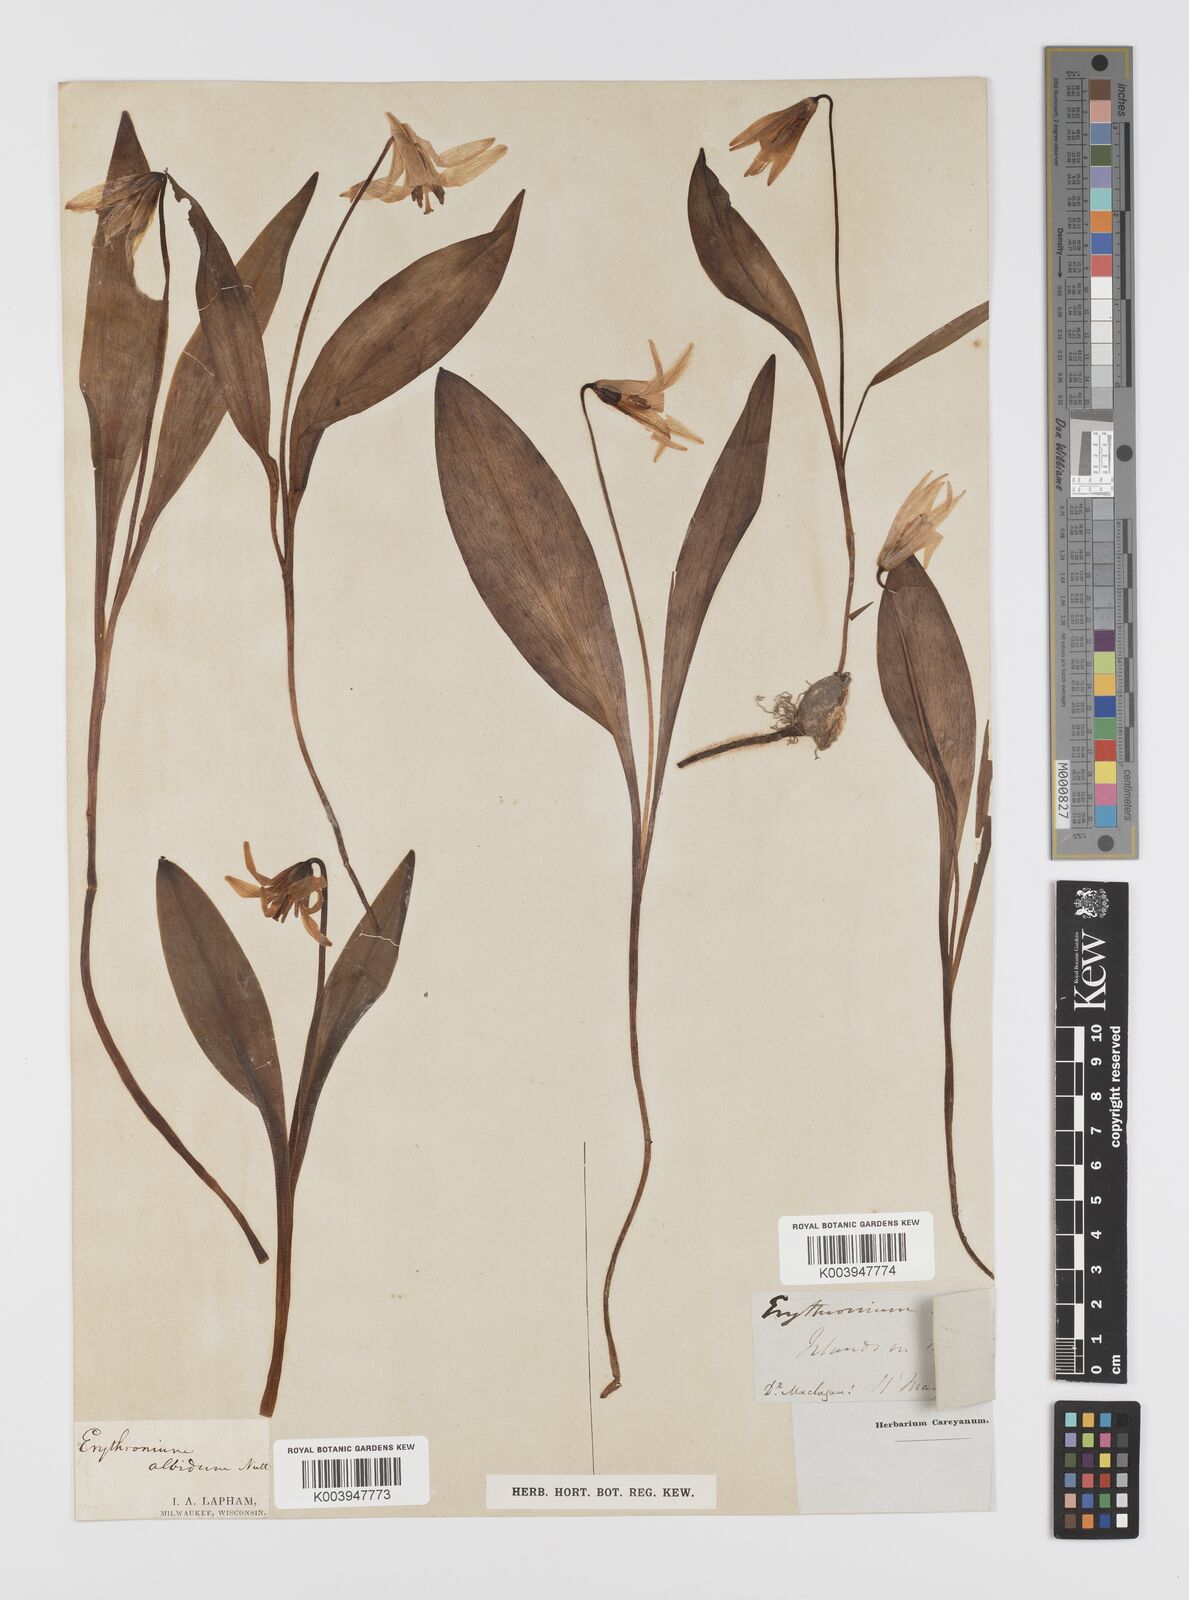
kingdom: Plantae
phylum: Tracheophyta
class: Liliopsida
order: Liliales
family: Liliaceae
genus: Erythronium
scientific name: Erythronium albidum
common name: White trout-lily
